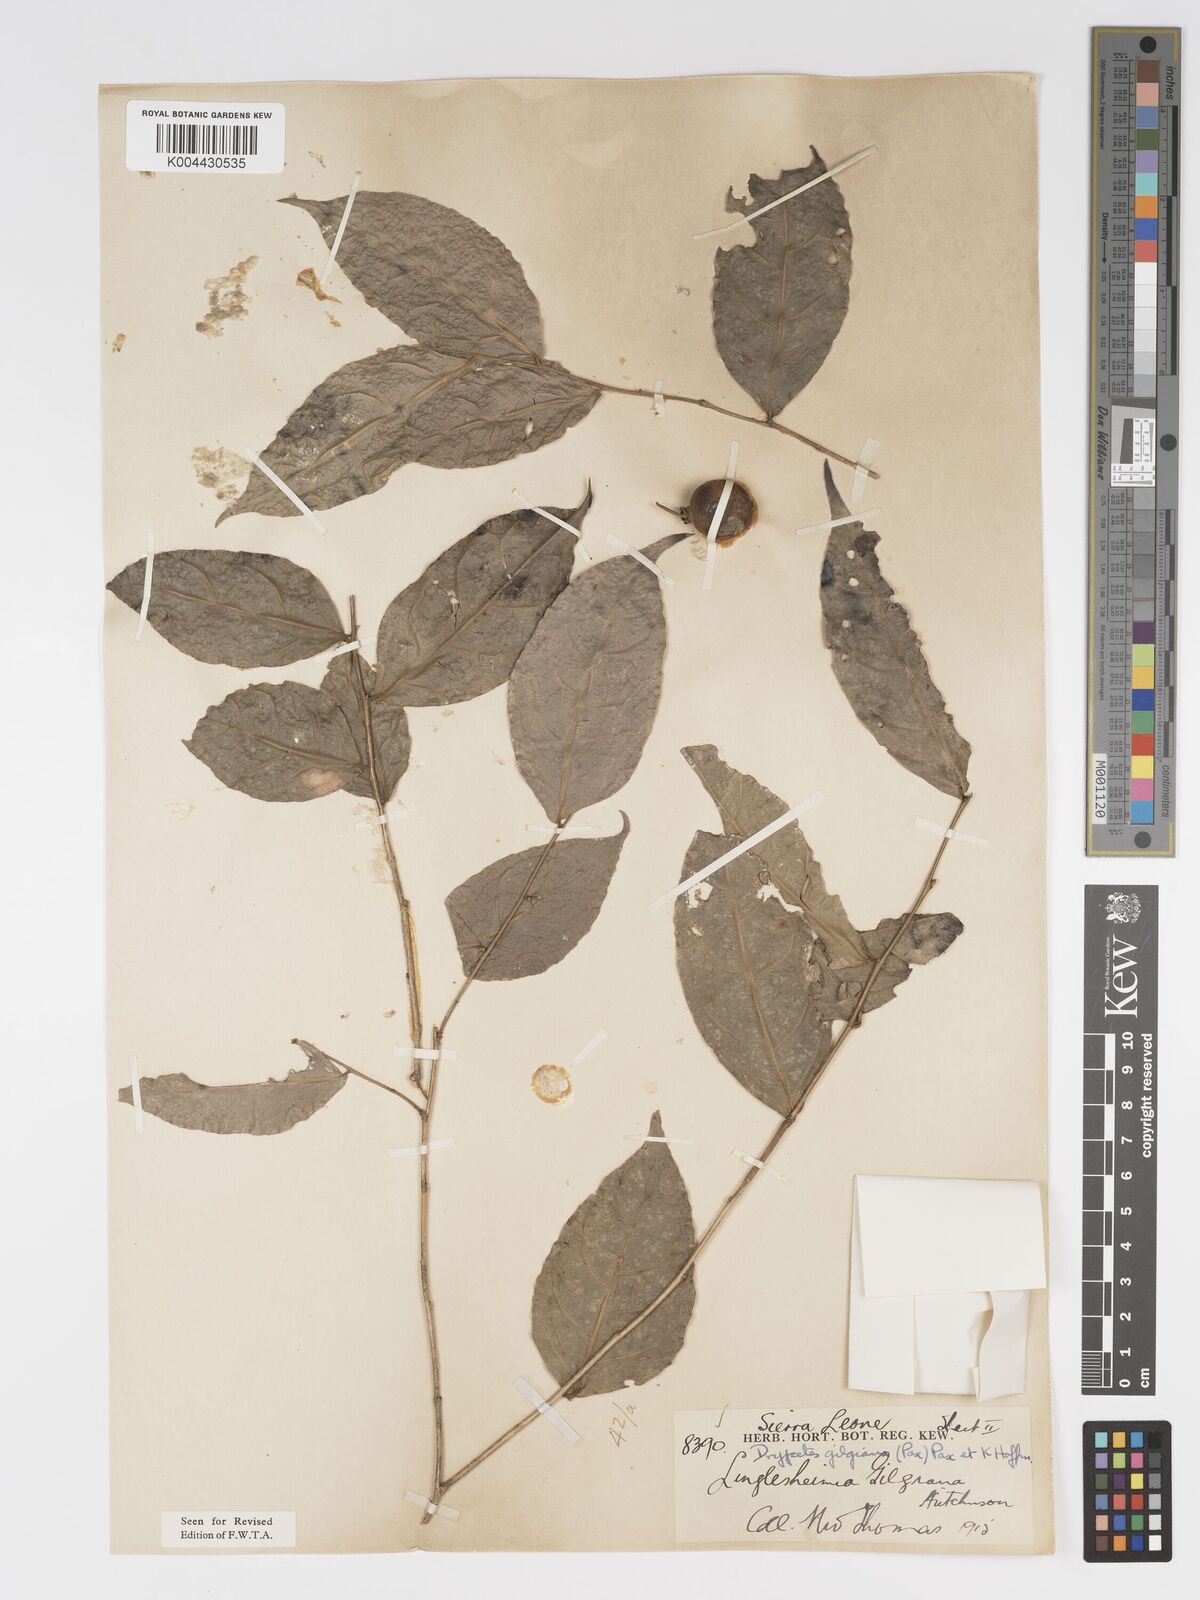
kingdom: Plantae
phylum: Tracheophyta
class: Magnoliopsida
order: Malpighiales
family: Putranjivaceae
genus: Drypetes
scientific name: Drypetes gilgiana
